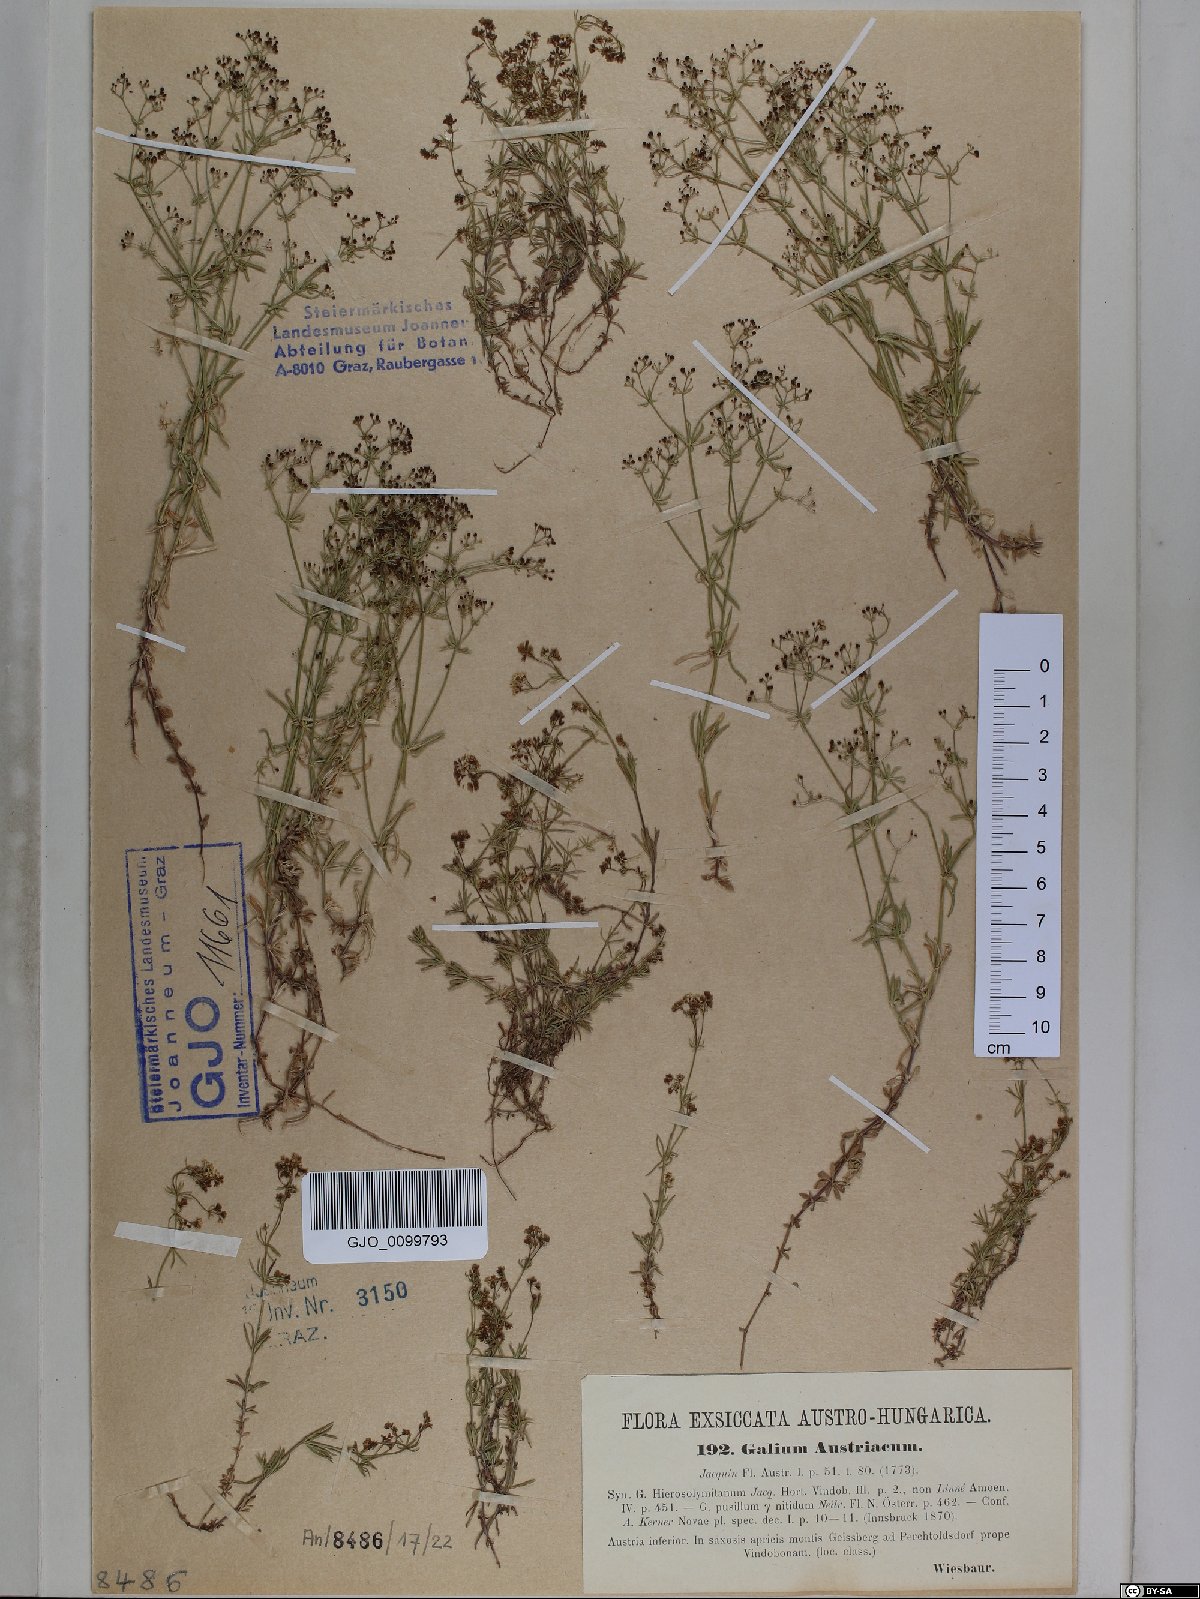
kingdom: Plantae
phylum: Tracheophyta
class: Magnoliopsida
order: Gentianales
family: Rubiaceae
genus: Galium
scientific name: Galium austriacum
